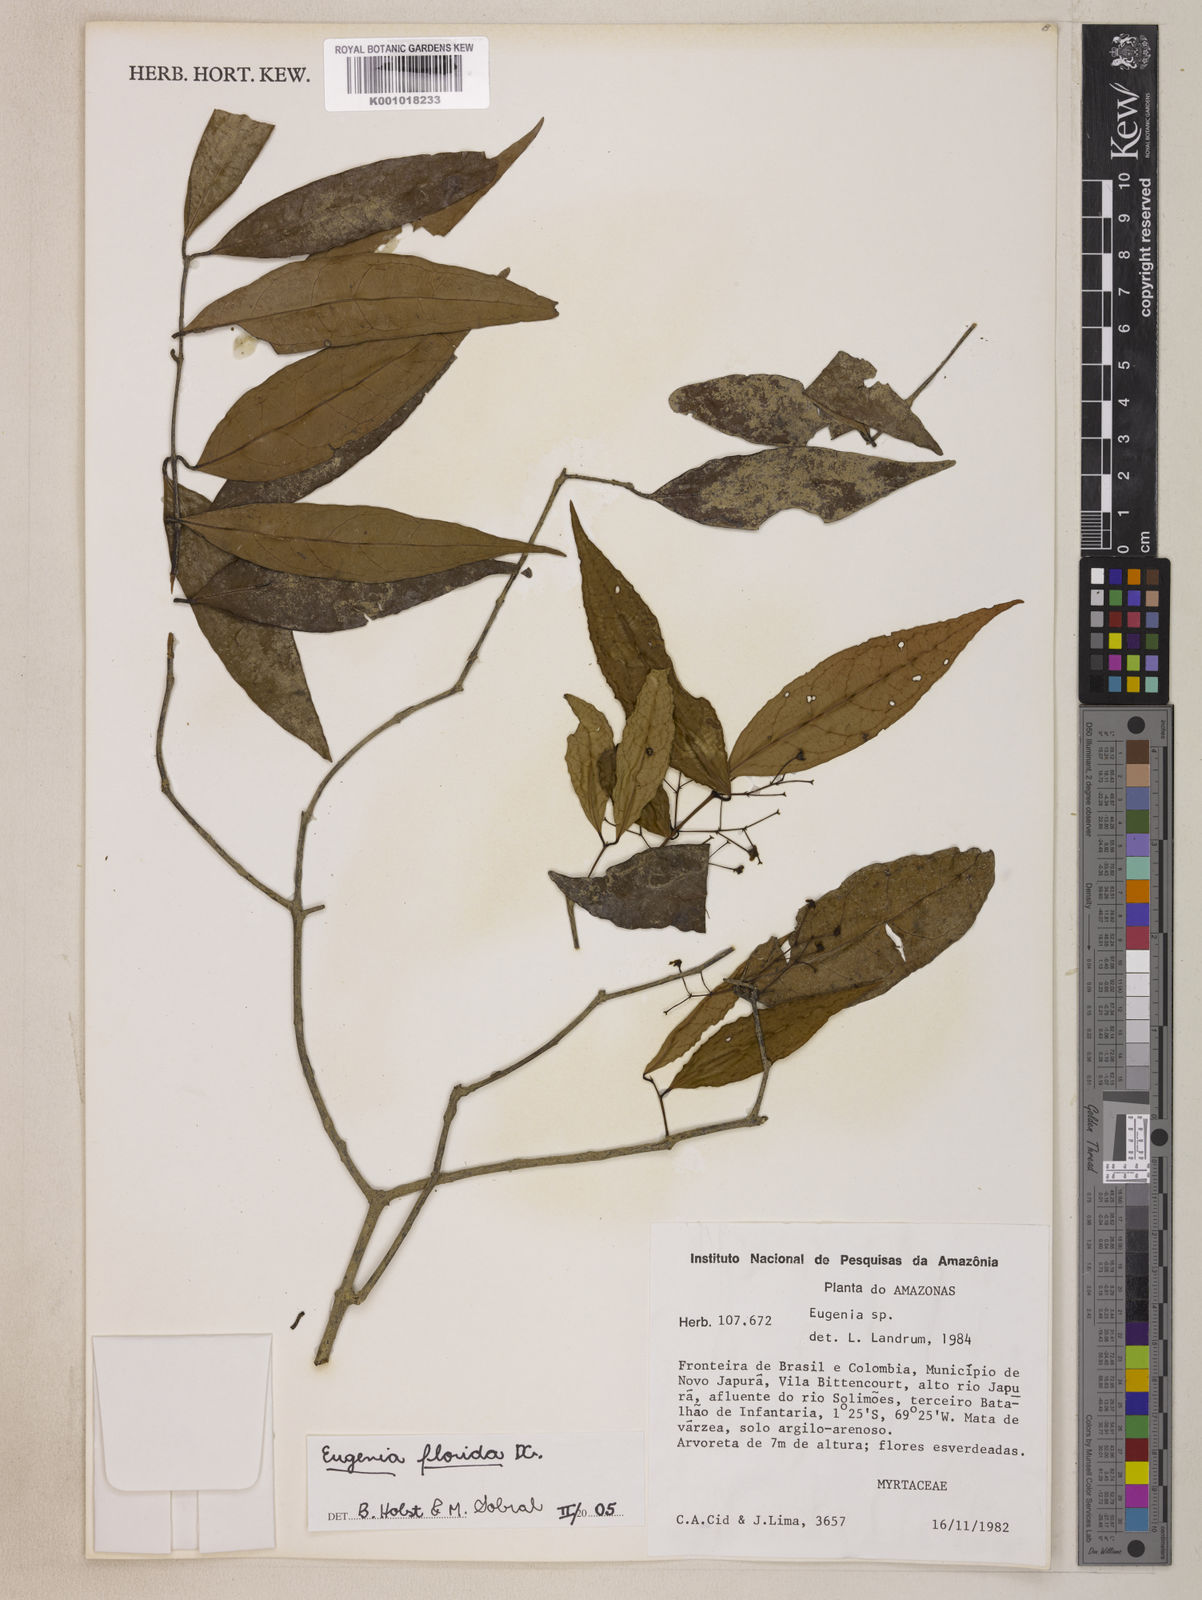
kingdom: Plantae
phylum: Tracheophyta
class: Magnoliopsida
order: Myrtales
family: Myrtaceae
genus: Eugenia
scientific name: Eugenia florida
